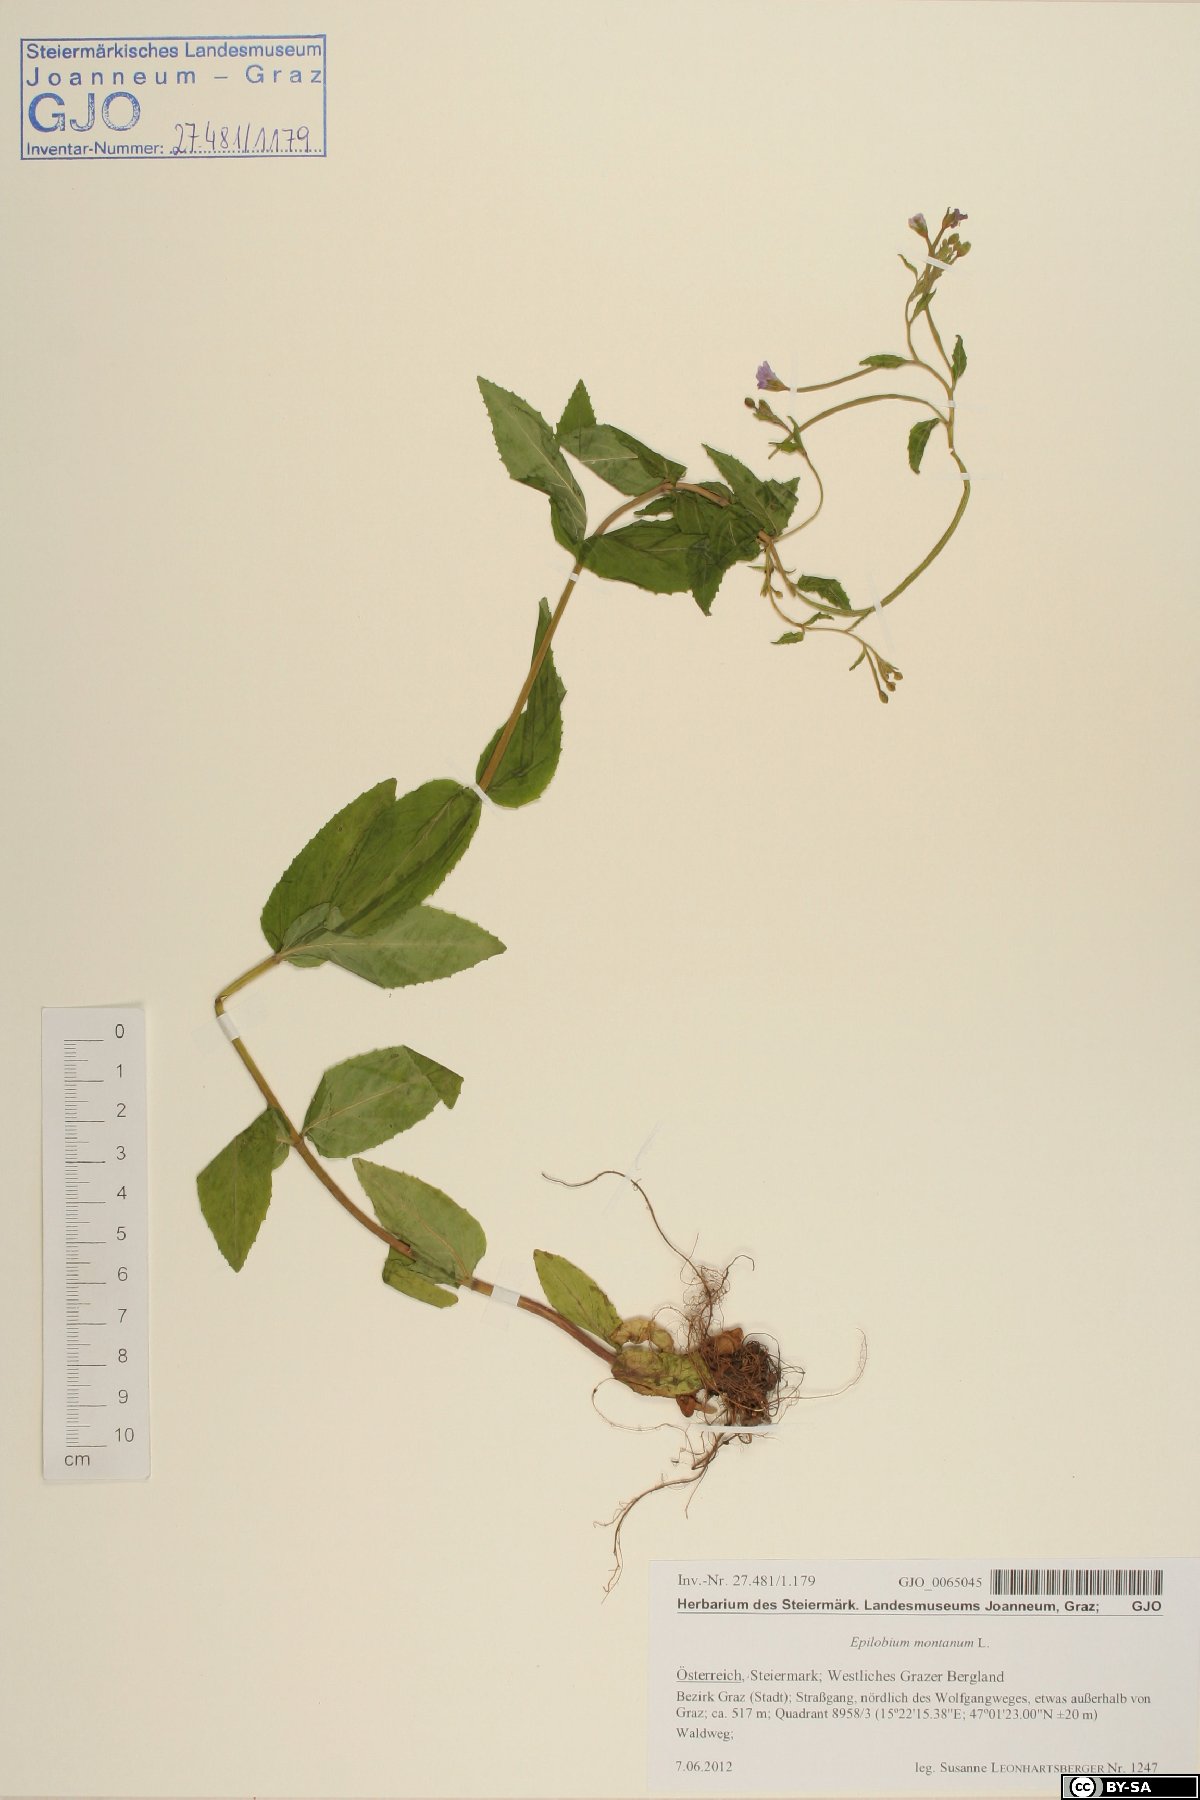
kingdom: Plantae
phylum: Tracheophyta
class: Magnoliopsida
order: Myrtales
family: Onagraceae
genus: Epilobium
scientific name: Epilobium montanum
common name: Broad-leaved willowherb
